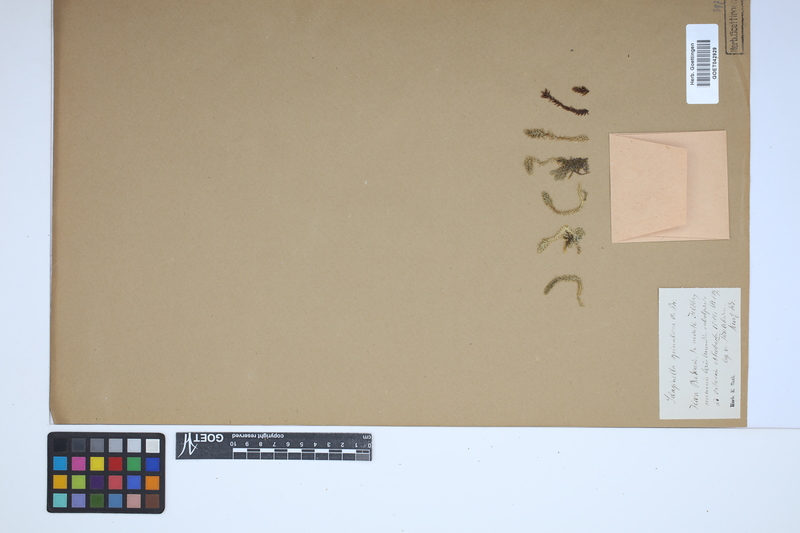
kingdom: Plantae
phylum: Tracheophyta
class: Lycopodiopsida
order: Selaginellales
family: Selaginellaceae
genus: Selaginella
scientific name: Selaginella selaginoides
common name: Prickly mountain-moss
